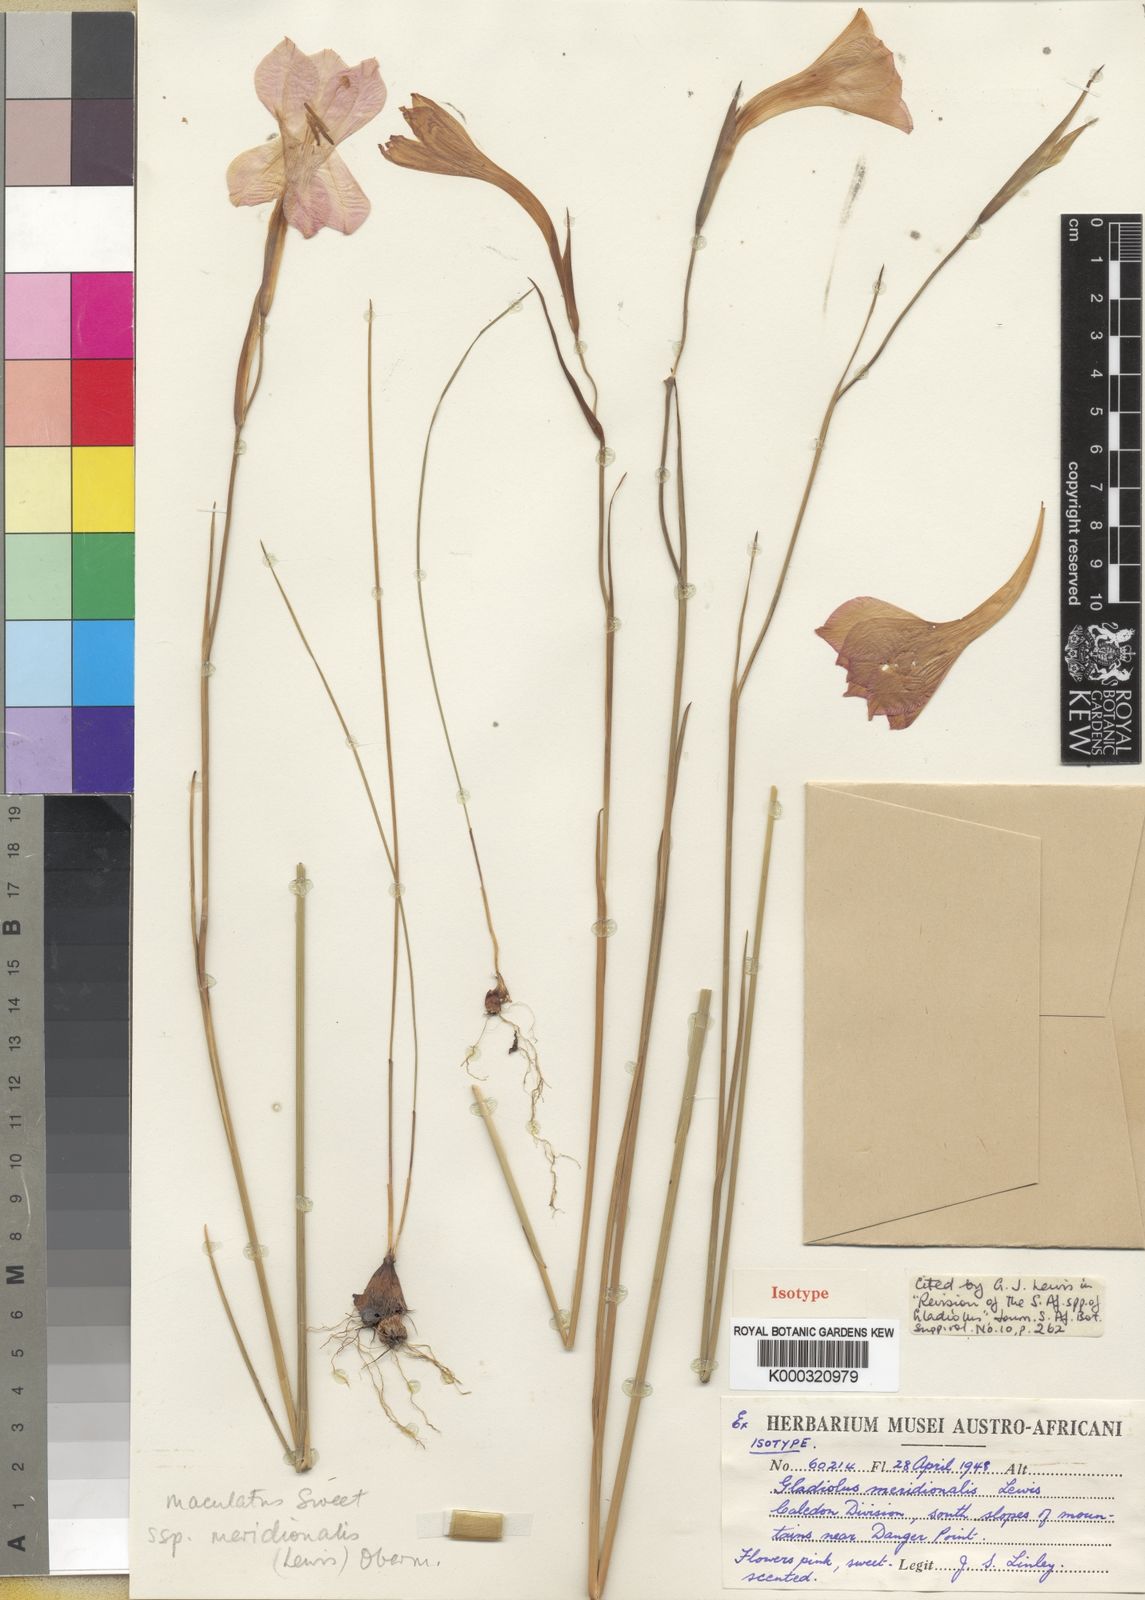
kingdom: Plantae
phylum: Tracheophyta
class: Liliopsida
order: Asparagales
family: Iridaceae
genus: Gladiolus
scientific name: Gladiolus meridionalis
